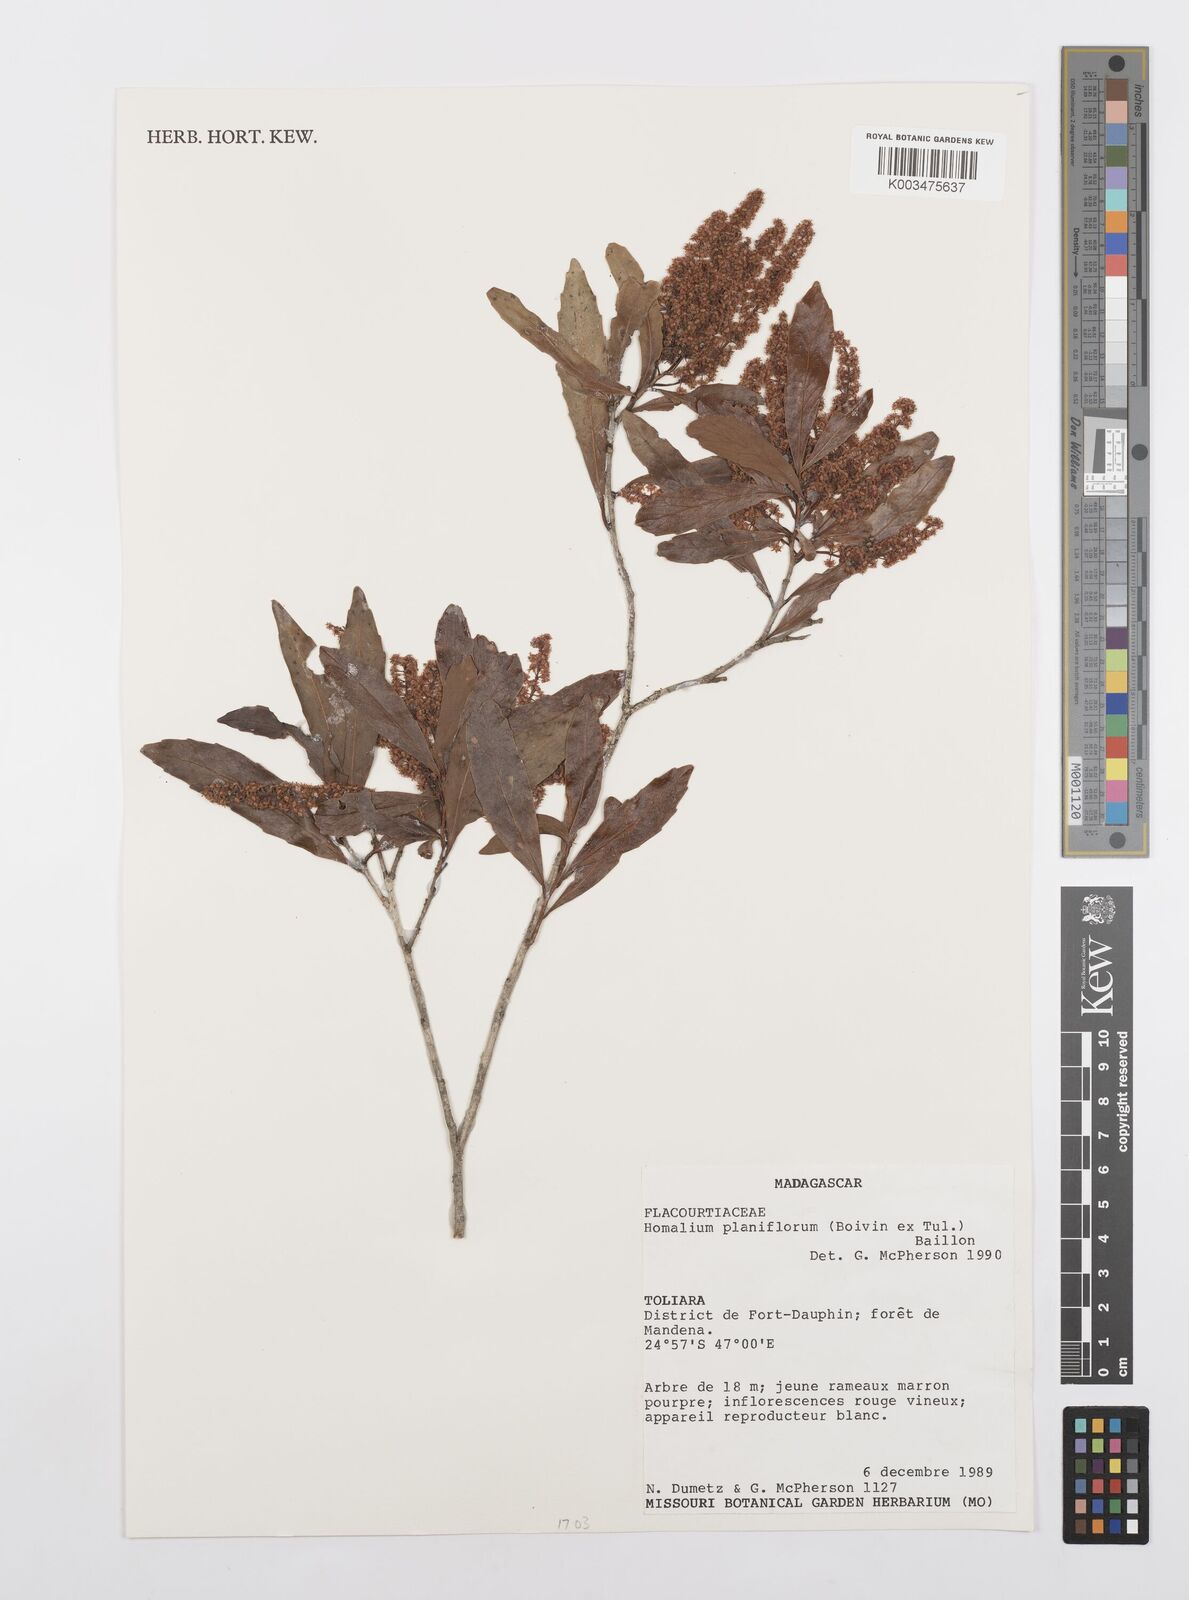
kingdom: Plantae
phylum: Tracheophyta
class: Magnoliopsida
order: Malpighiales
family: Salicaceae
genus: Homalium
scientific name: Homalium planiflorum
